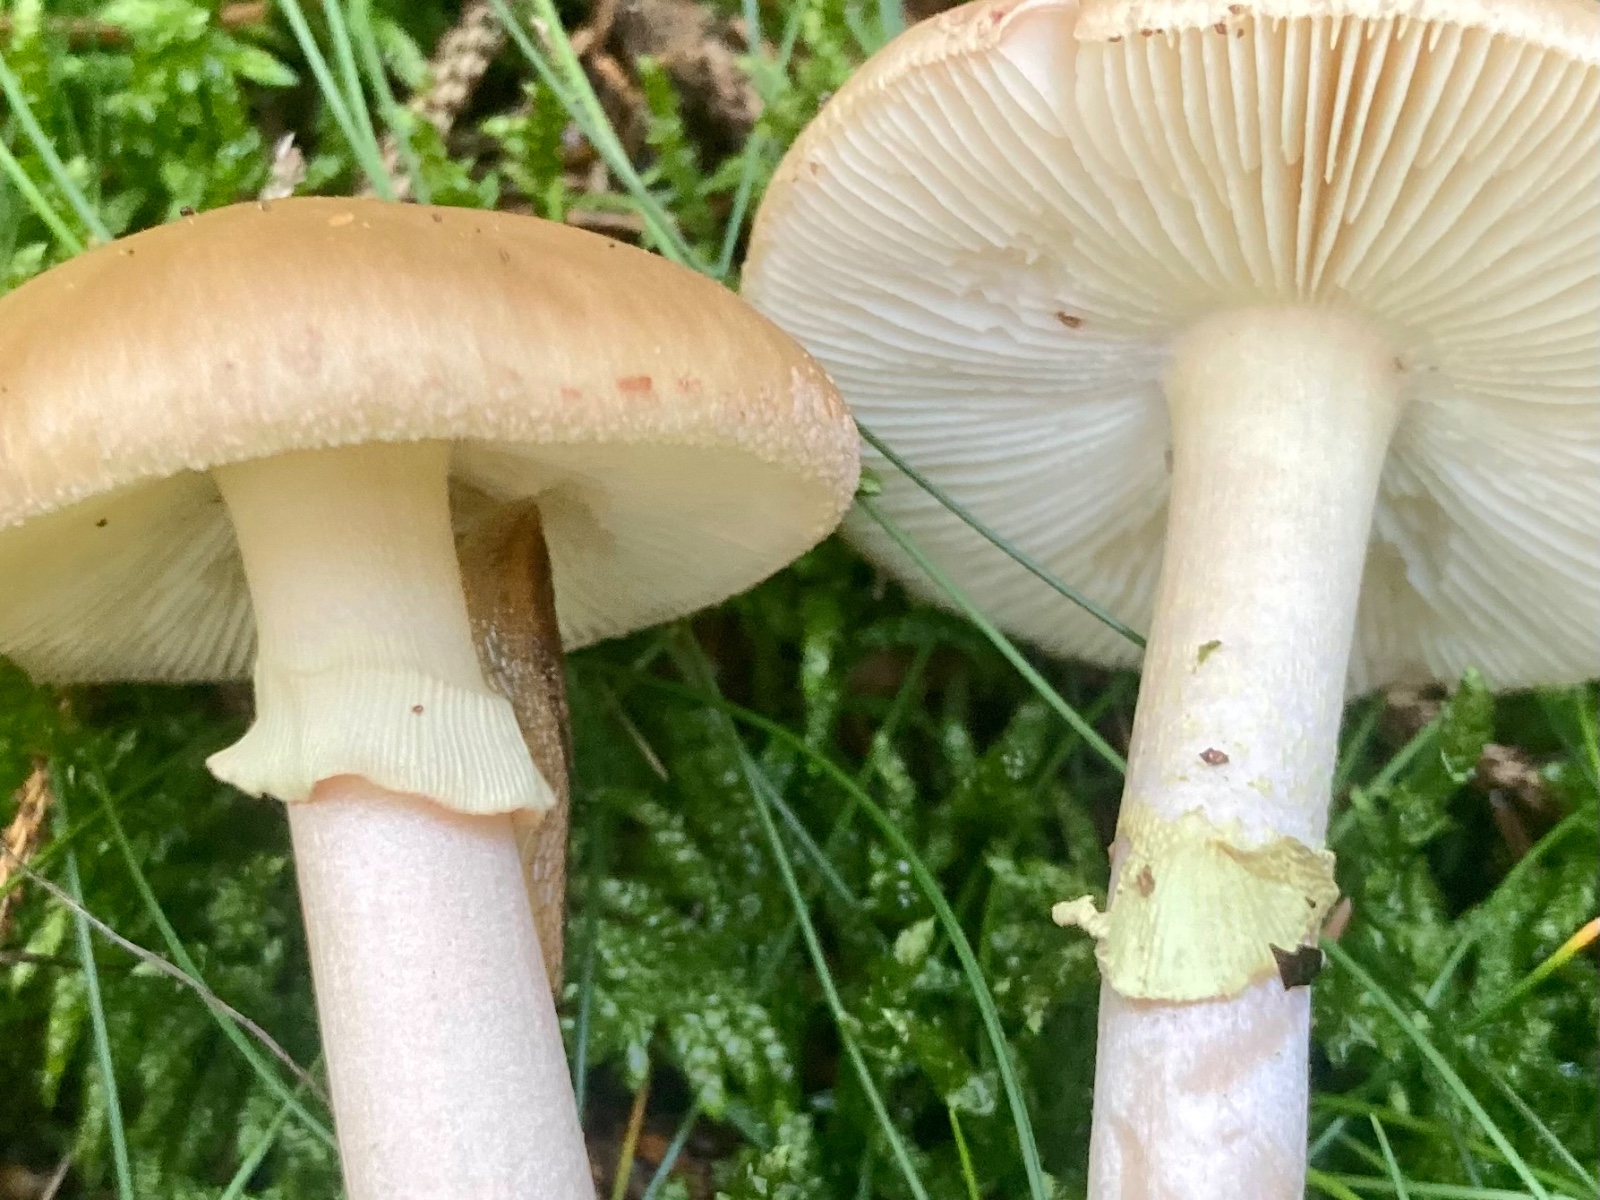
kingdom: Fungi
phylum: Basidiomycota
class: Agaricomycetes
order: Agaricales
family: Amanitaceae
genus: Amanita
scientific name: Amanita rubescens
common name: Blusher
